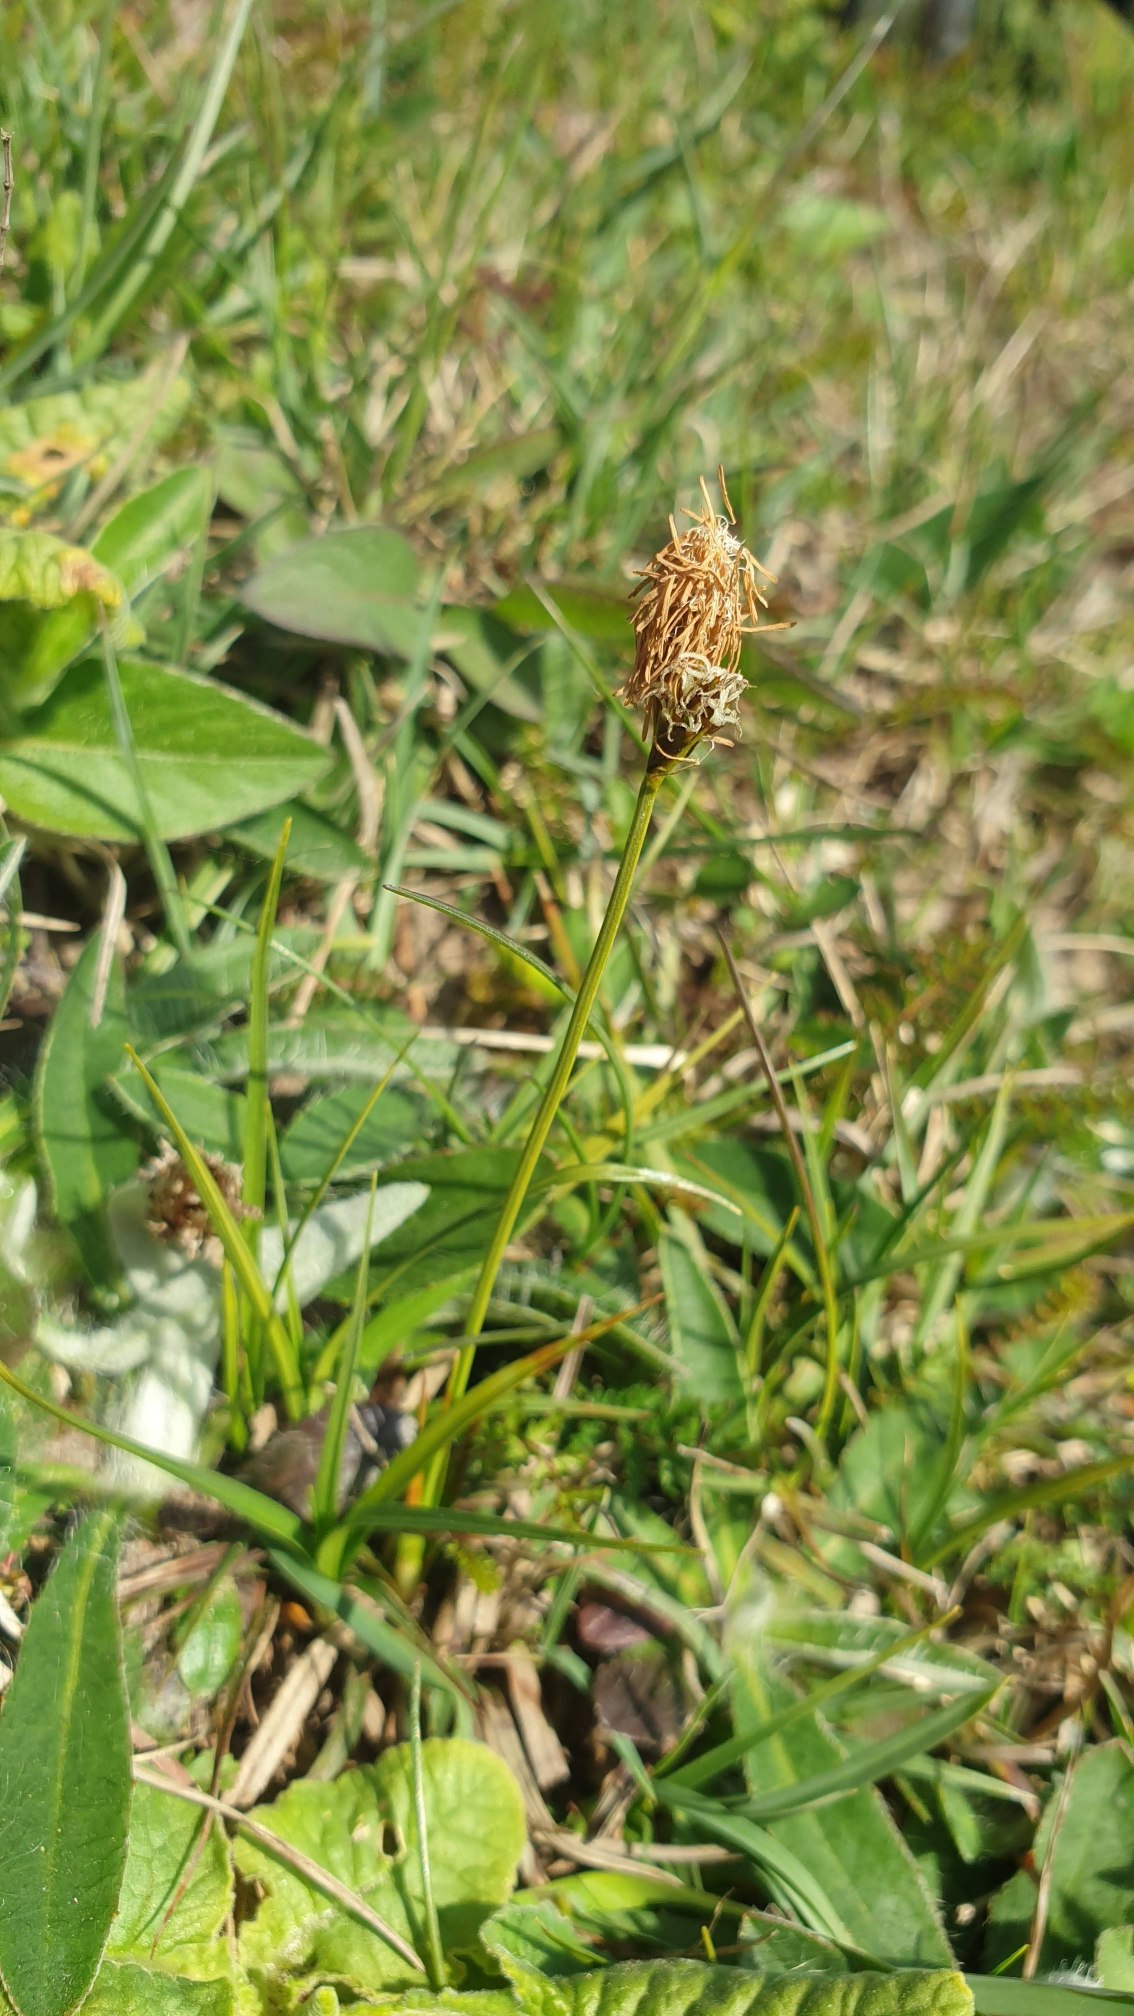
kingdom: Plantae
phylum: Tracheophyta
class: Liliopsida
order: Poales
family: Cyperaceae
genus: Carex
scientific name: Carex caryophyllea
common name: Vår-star
